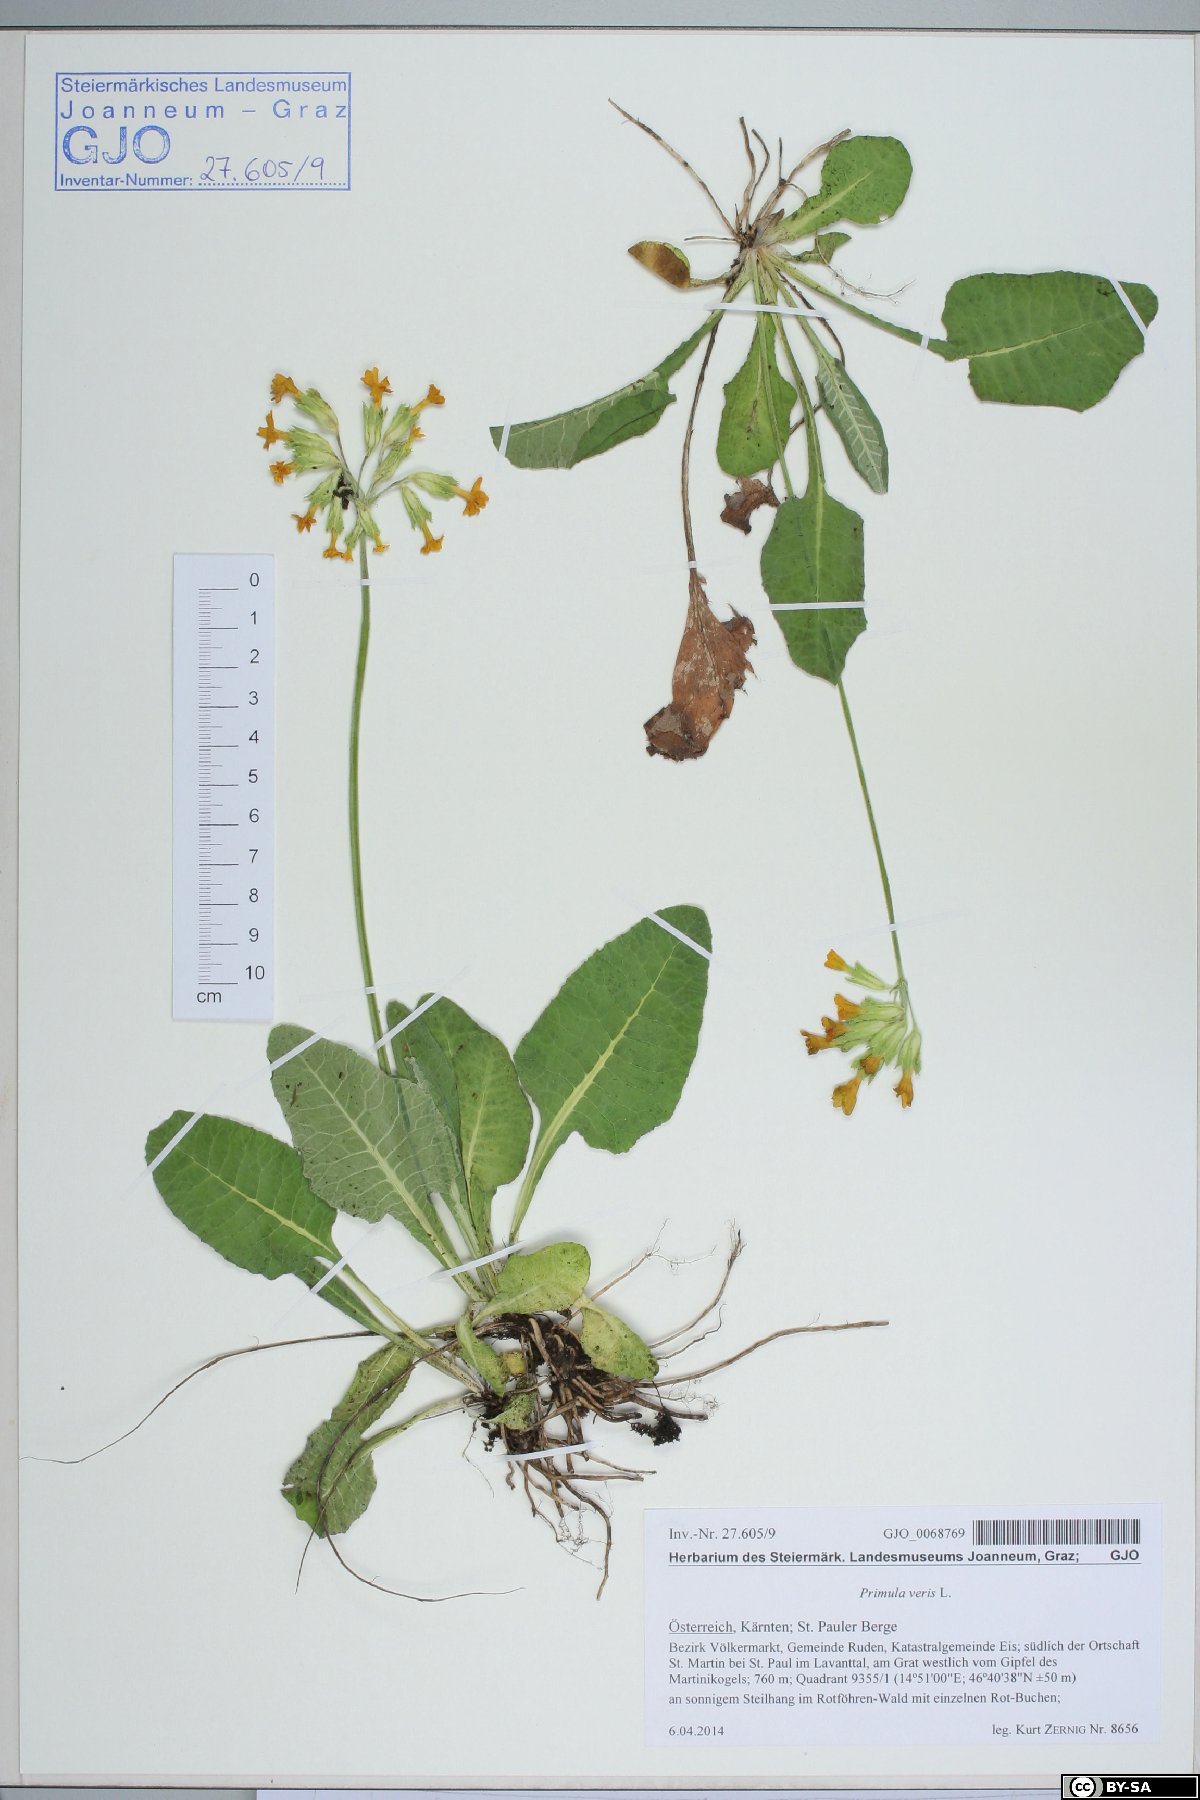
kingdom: Plantae
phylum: Tracheophyta
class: Magnoliopsida
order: Ericales
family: Primulaceae
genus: Primula
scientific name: Primula veris
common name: Cowslip
